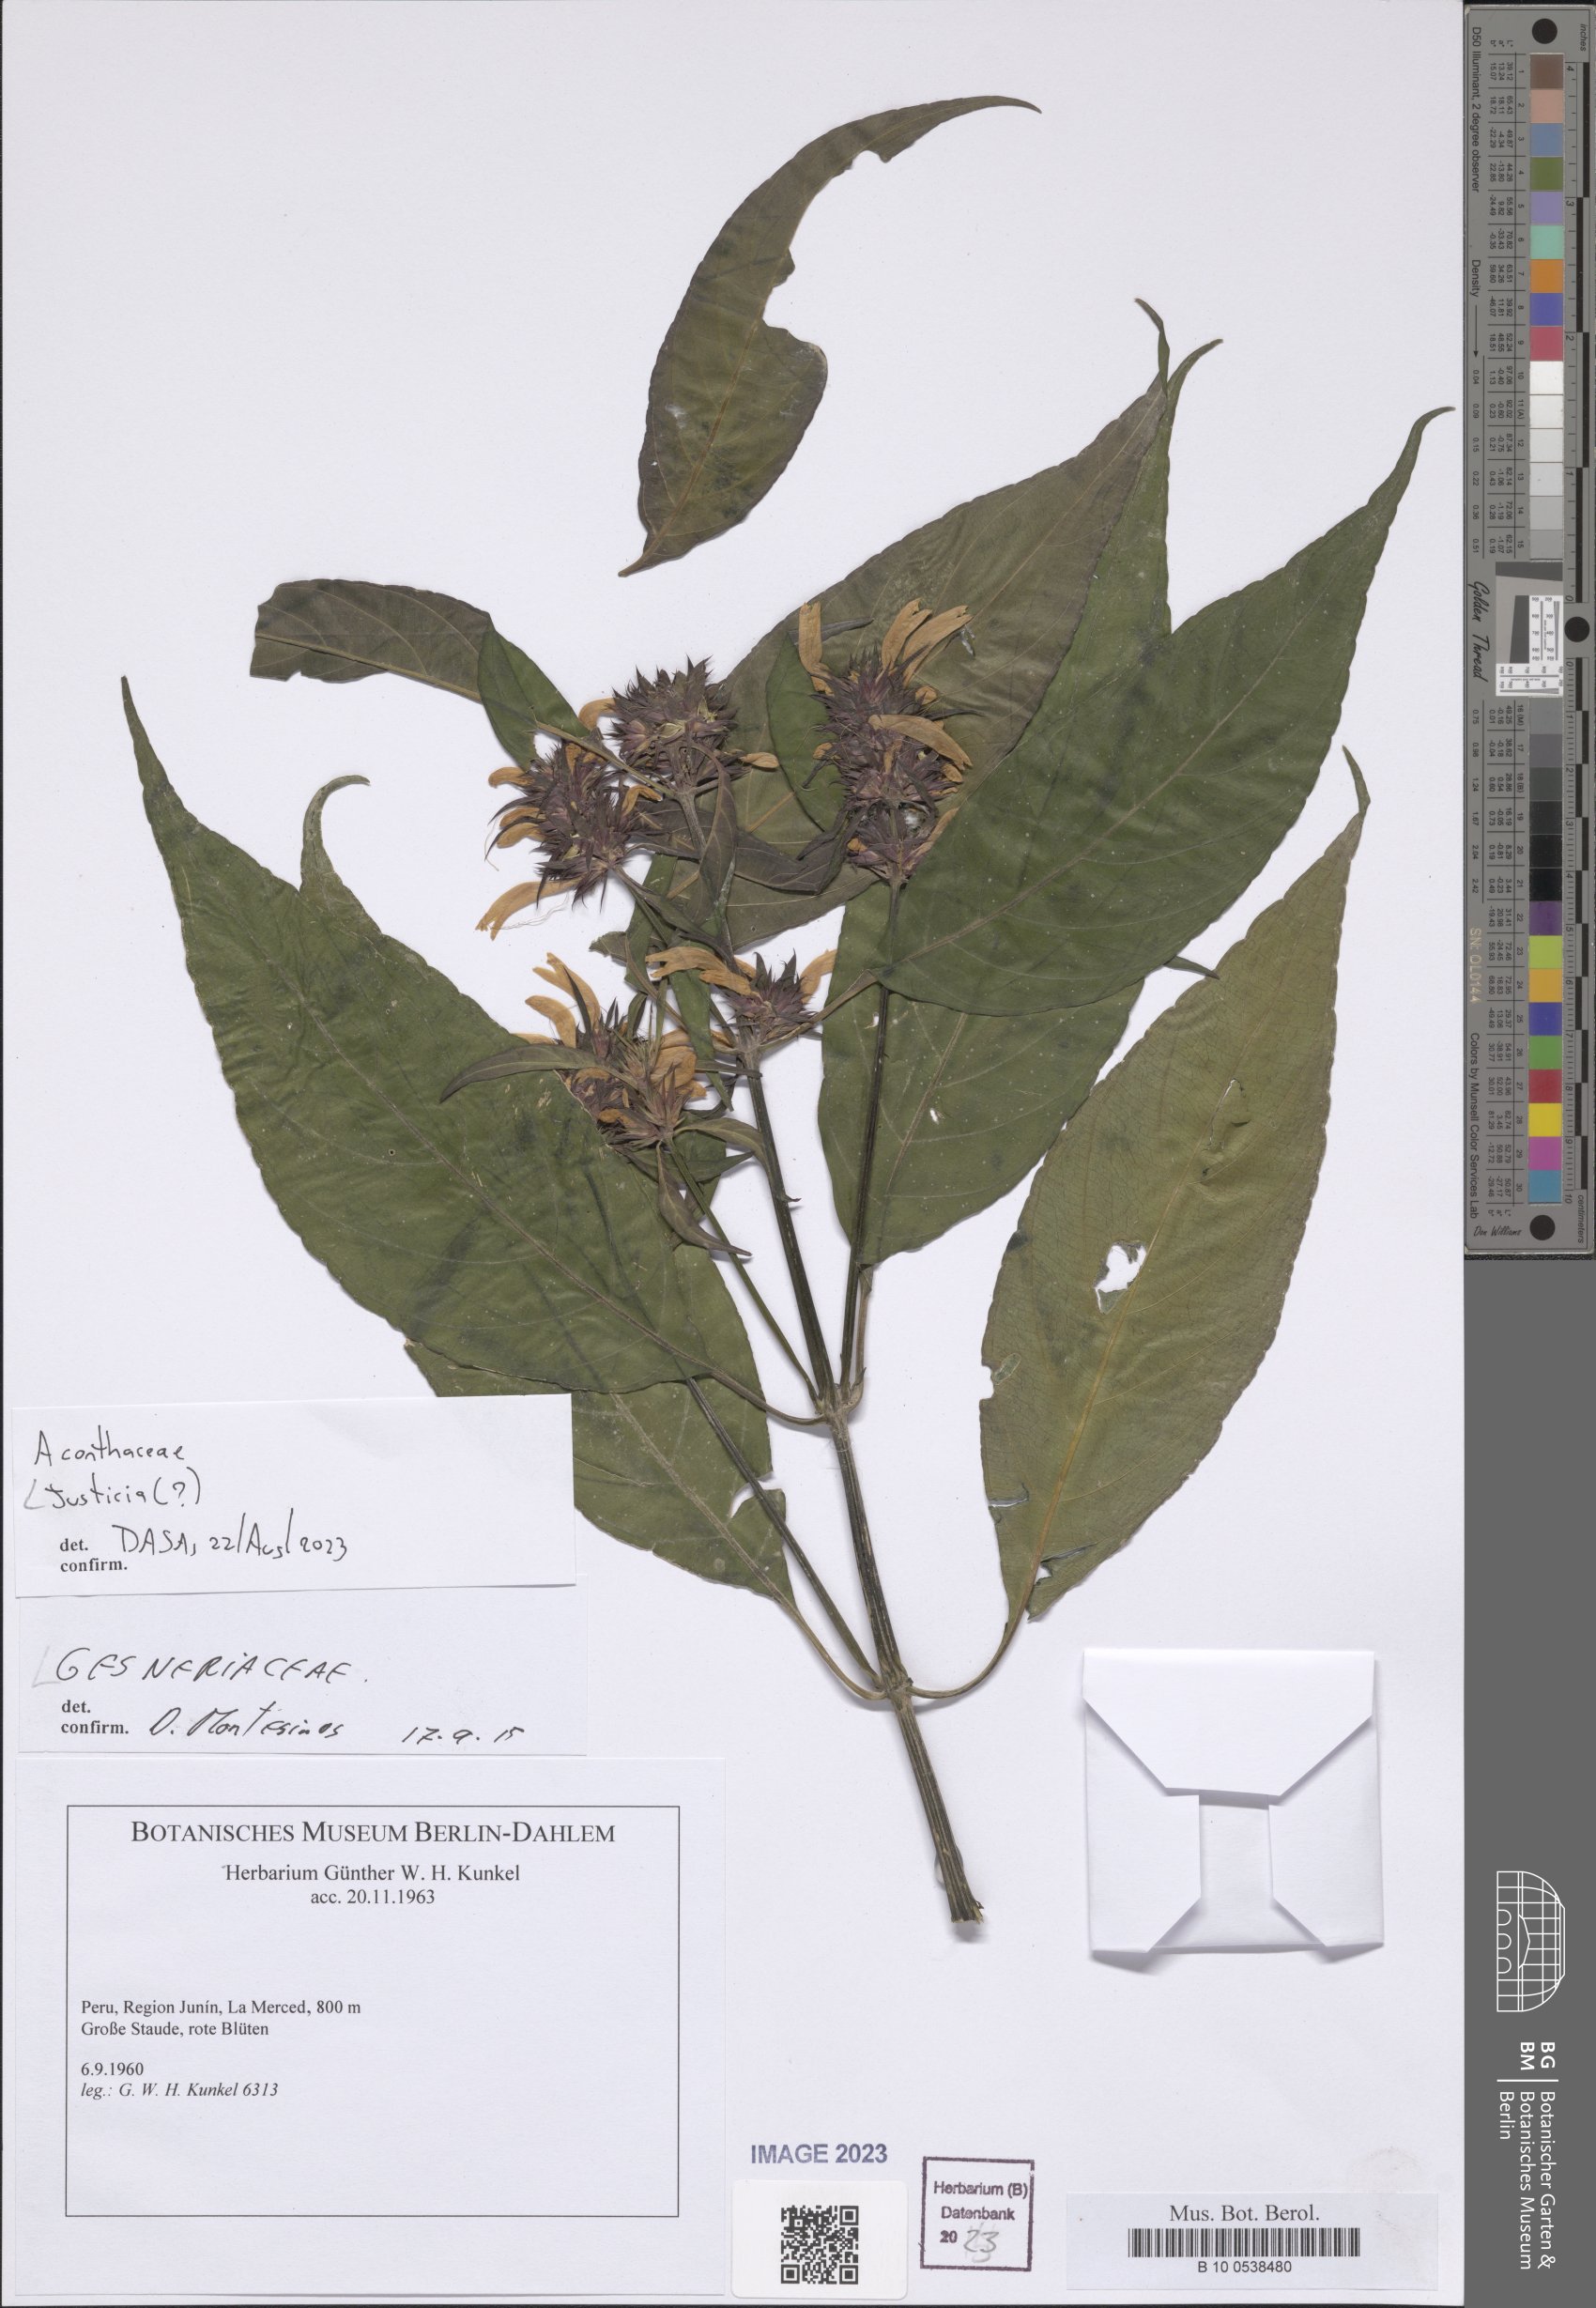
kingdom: Plantae
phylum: Tracheophyta
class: Magnoliopsida
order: Lamiales
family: Acanthaceae
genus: Justicia
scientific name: Justicia
